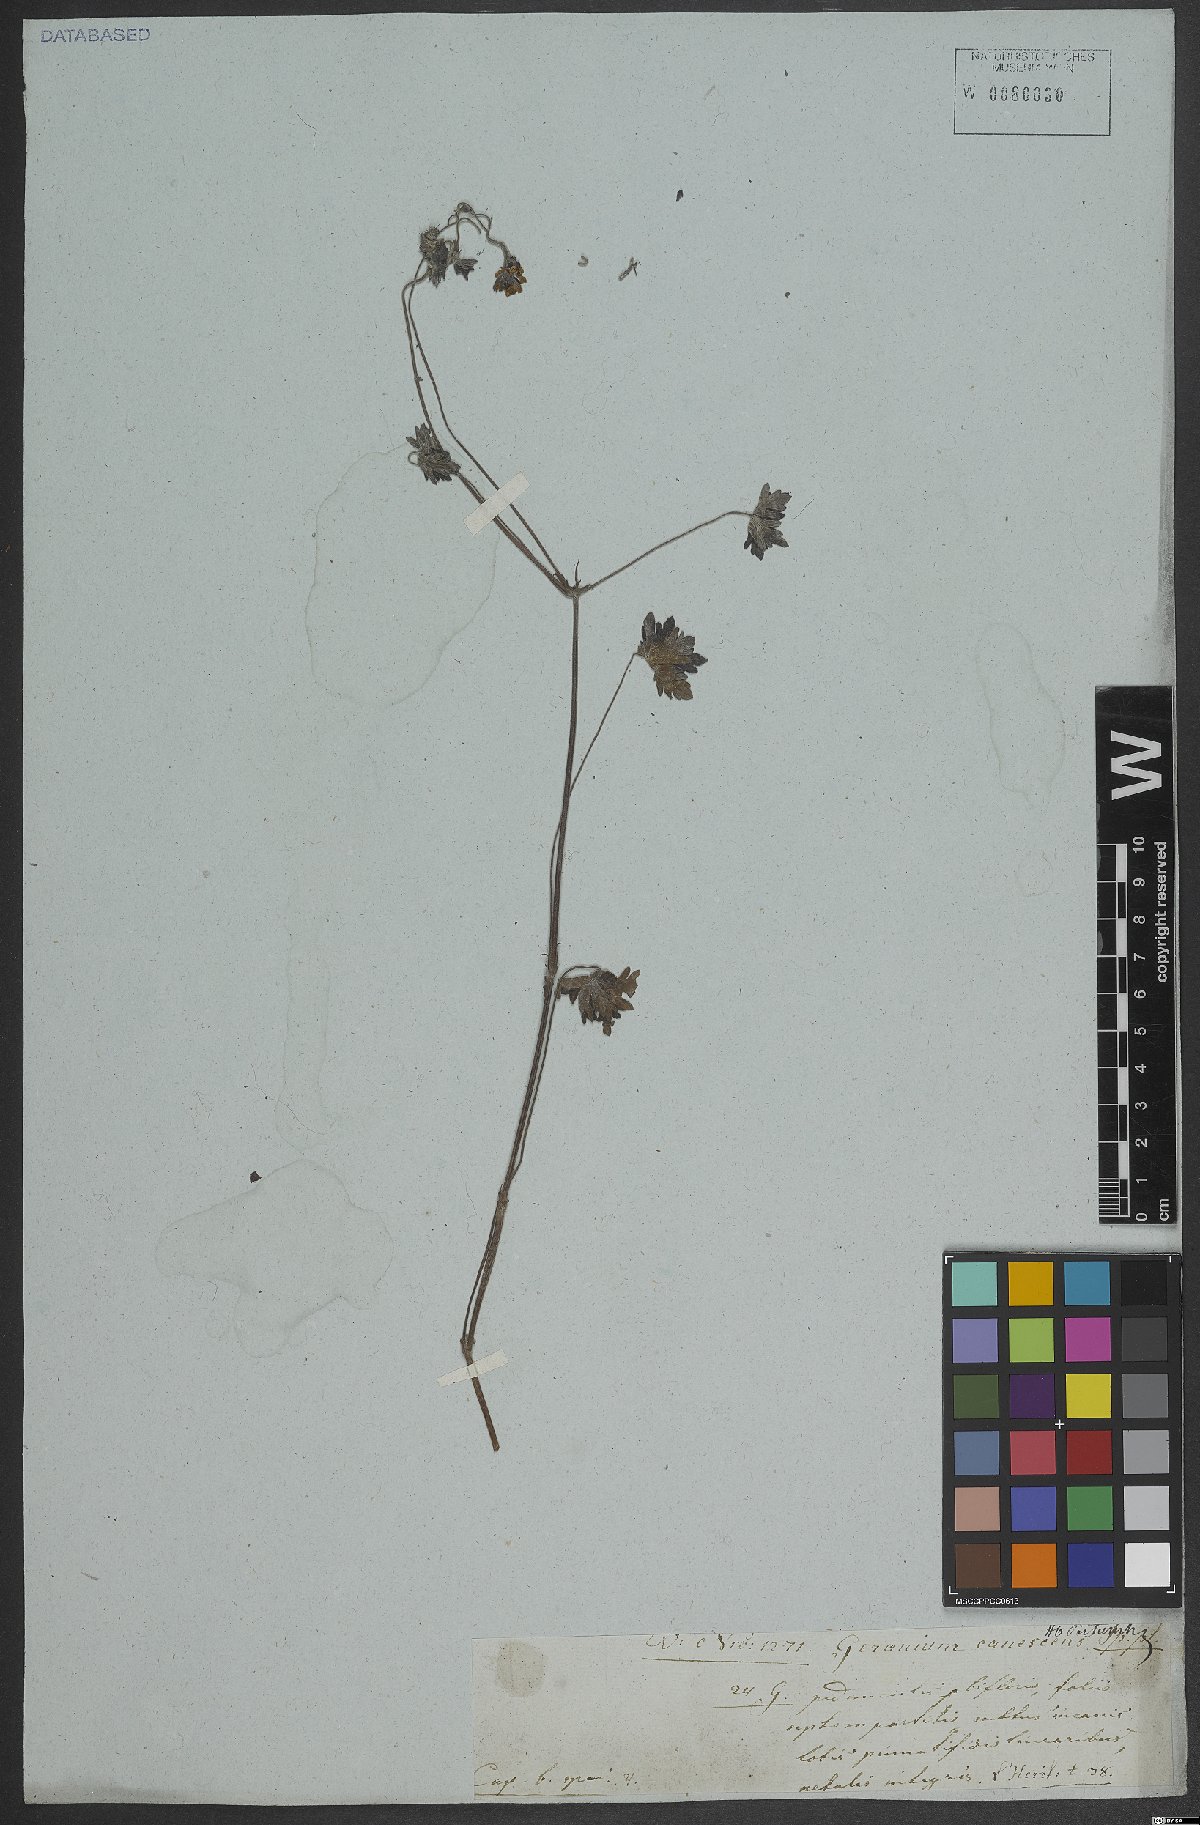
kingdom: Plantae
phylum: Tracheophyta
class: Magnoliopsida
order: Geraniales
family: Geraniaceae
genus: Geranium
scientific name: Geranium canescens
